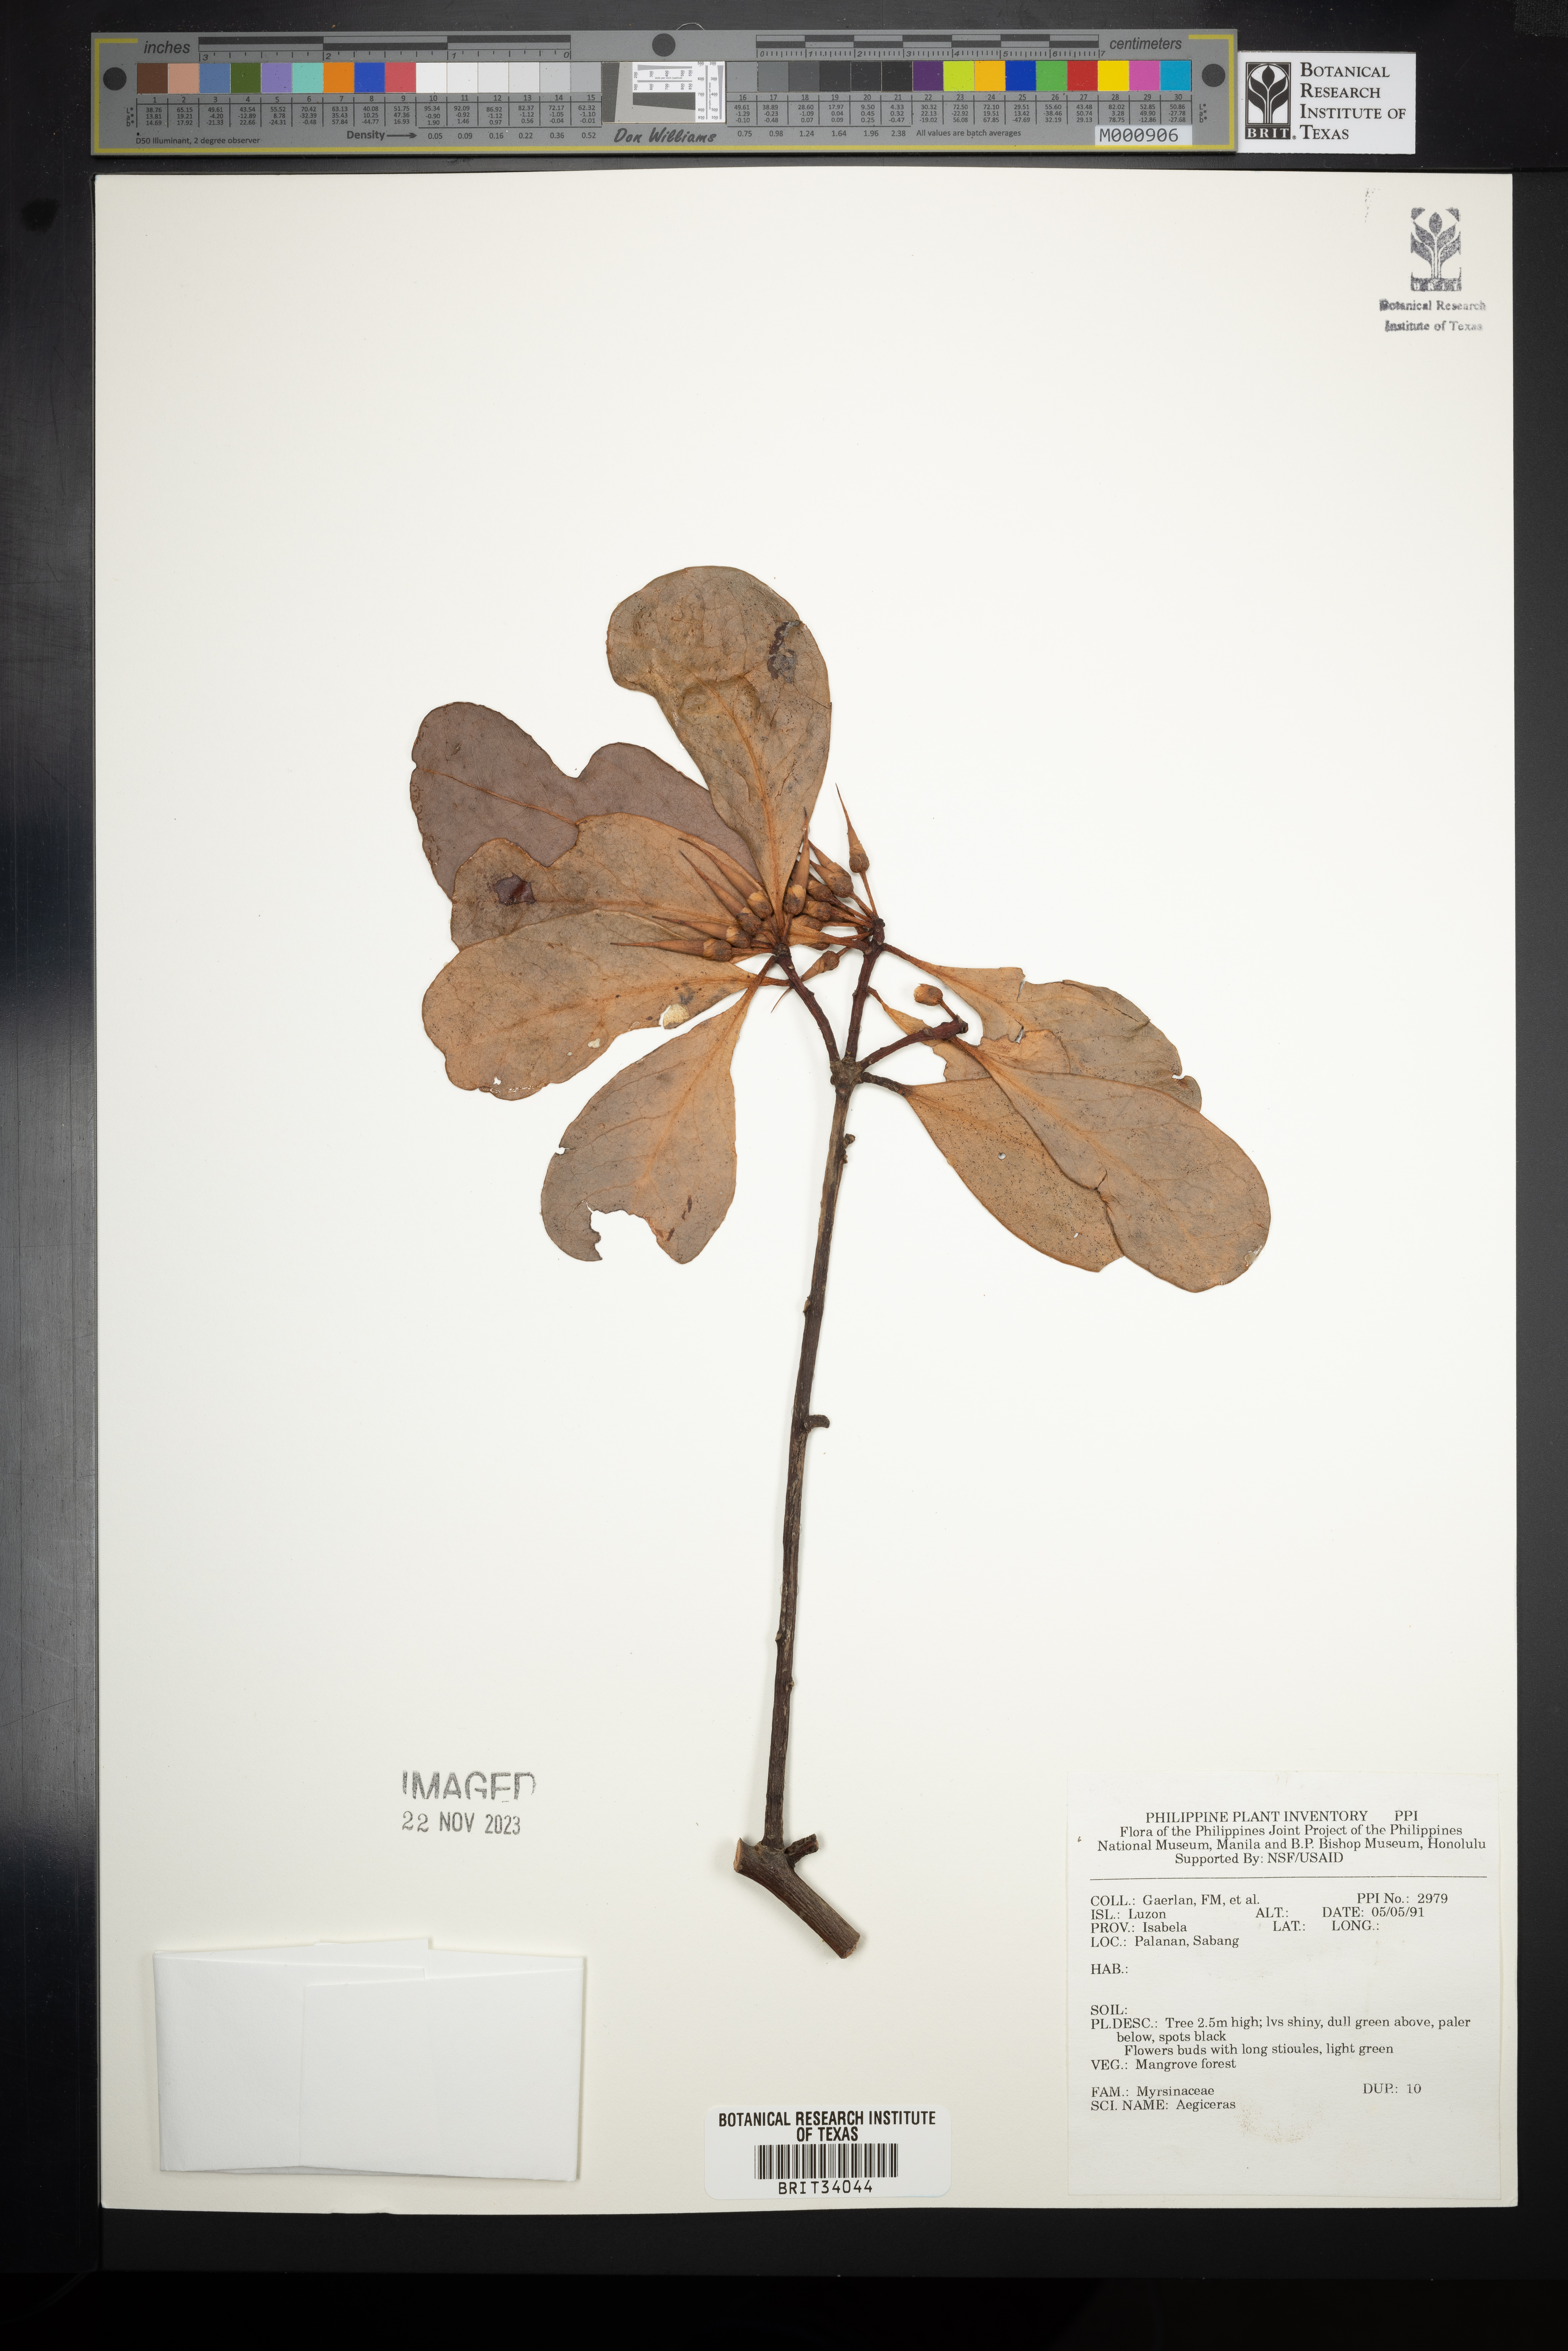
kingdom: Plantae
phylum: Tracheophyta
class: Magnoliopsida
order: Ericales
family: Primulaceae
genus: Aegiceras
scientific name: Aegiceras
